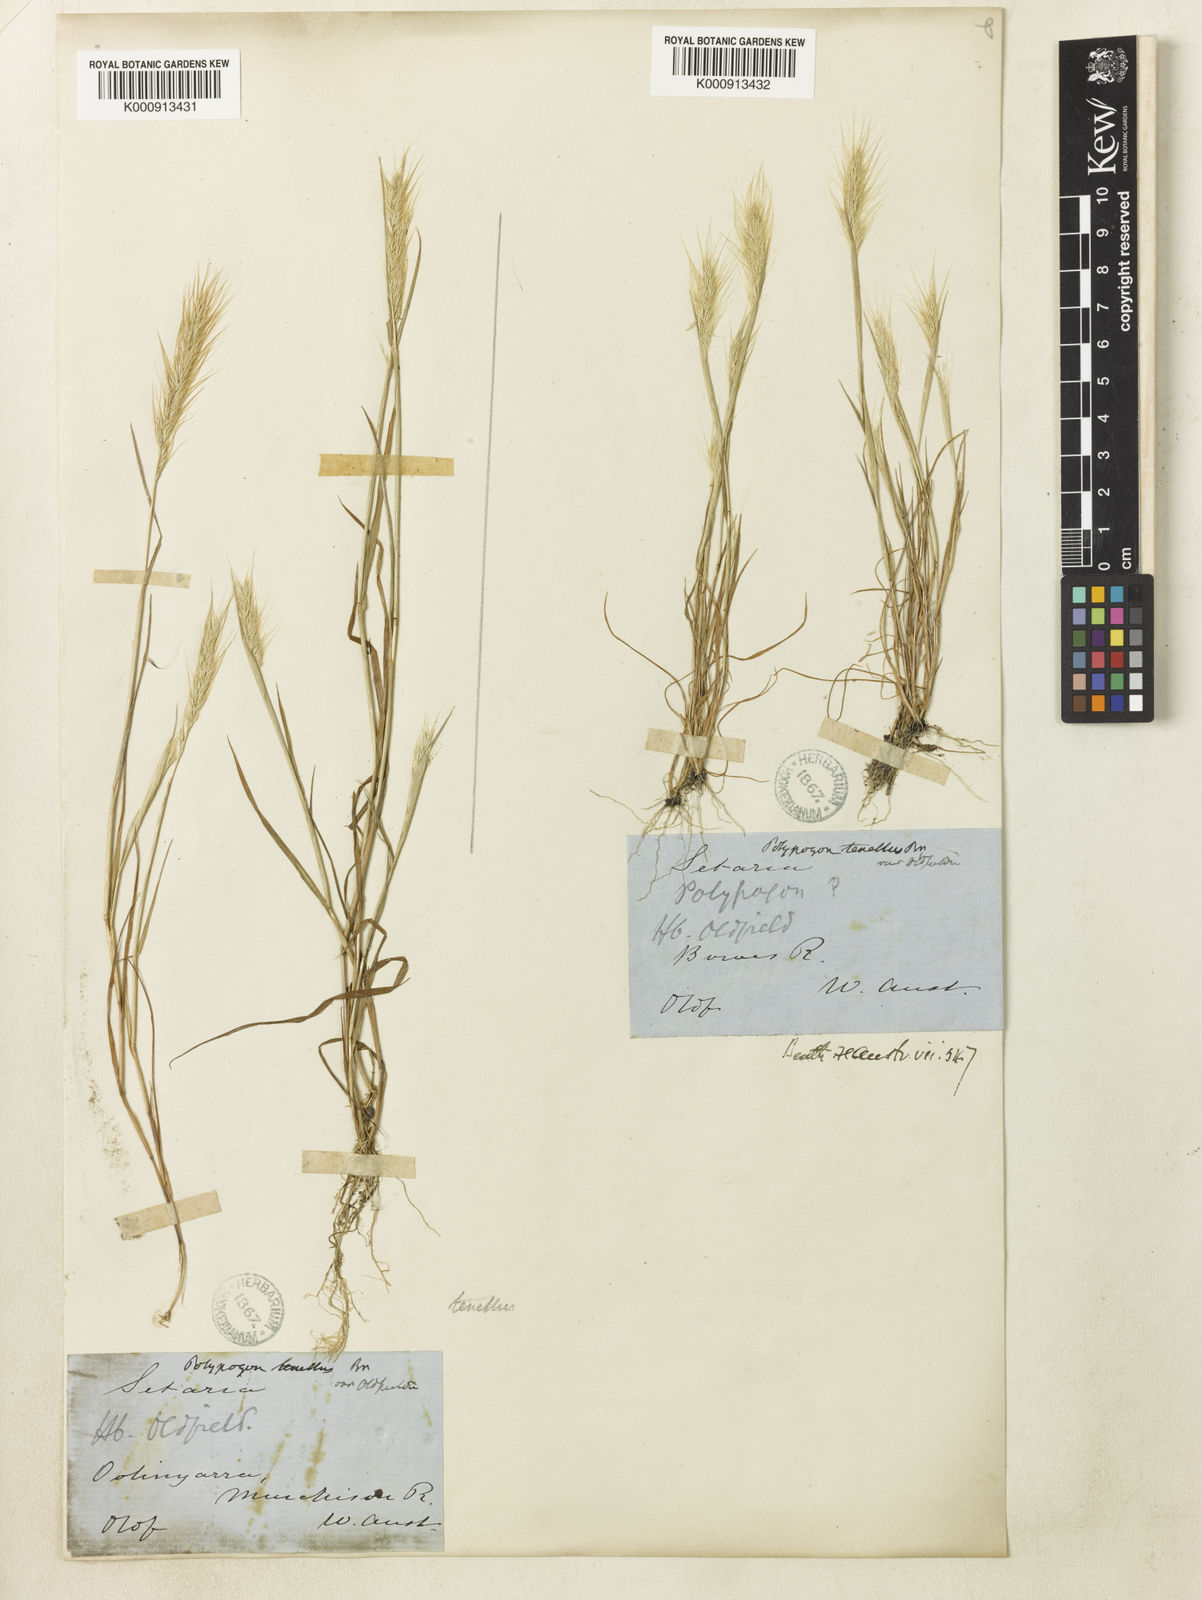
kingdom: Plantae
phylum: Tracheophyta
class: Liliopsida
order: Poales
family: Poaceae
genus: Polypogon
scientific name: Polypogon tenellus
